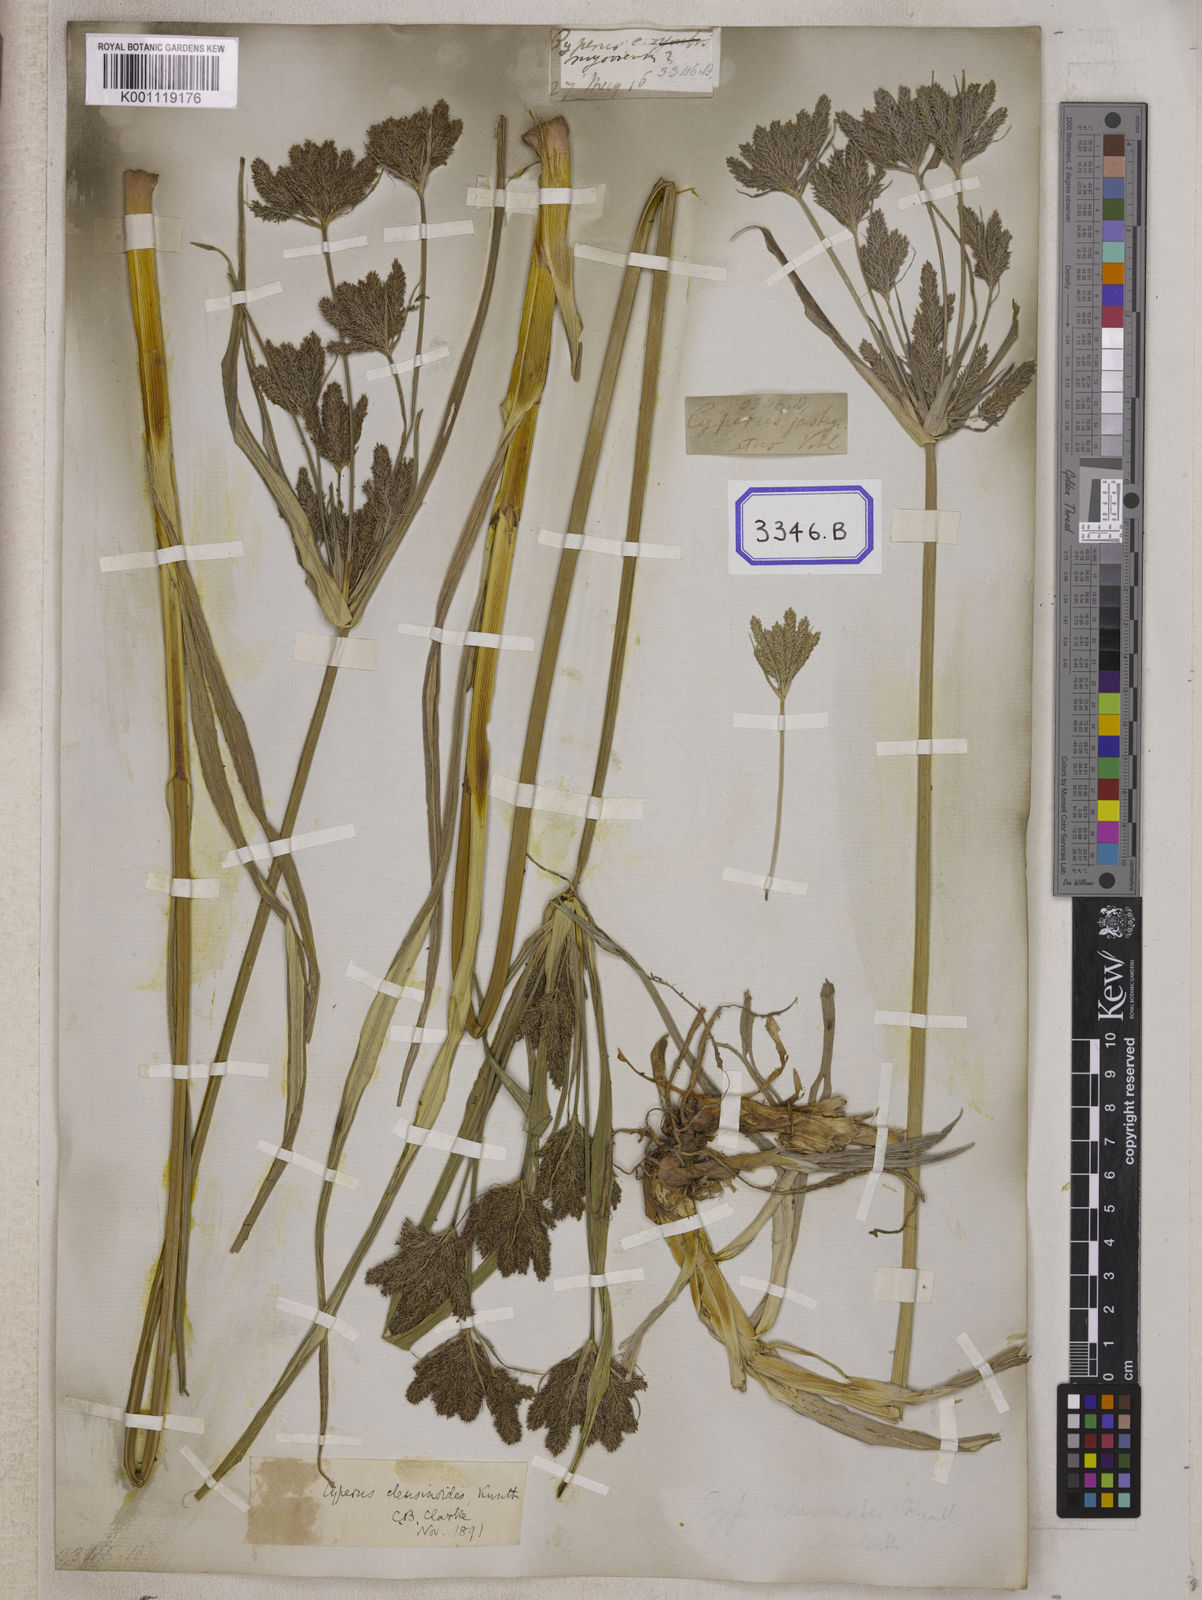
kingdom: Plantae
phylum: Tracheophyta
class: Liliopsida
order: Poales
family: Cyperaceae
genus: Cyperus
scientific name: Cyperus
